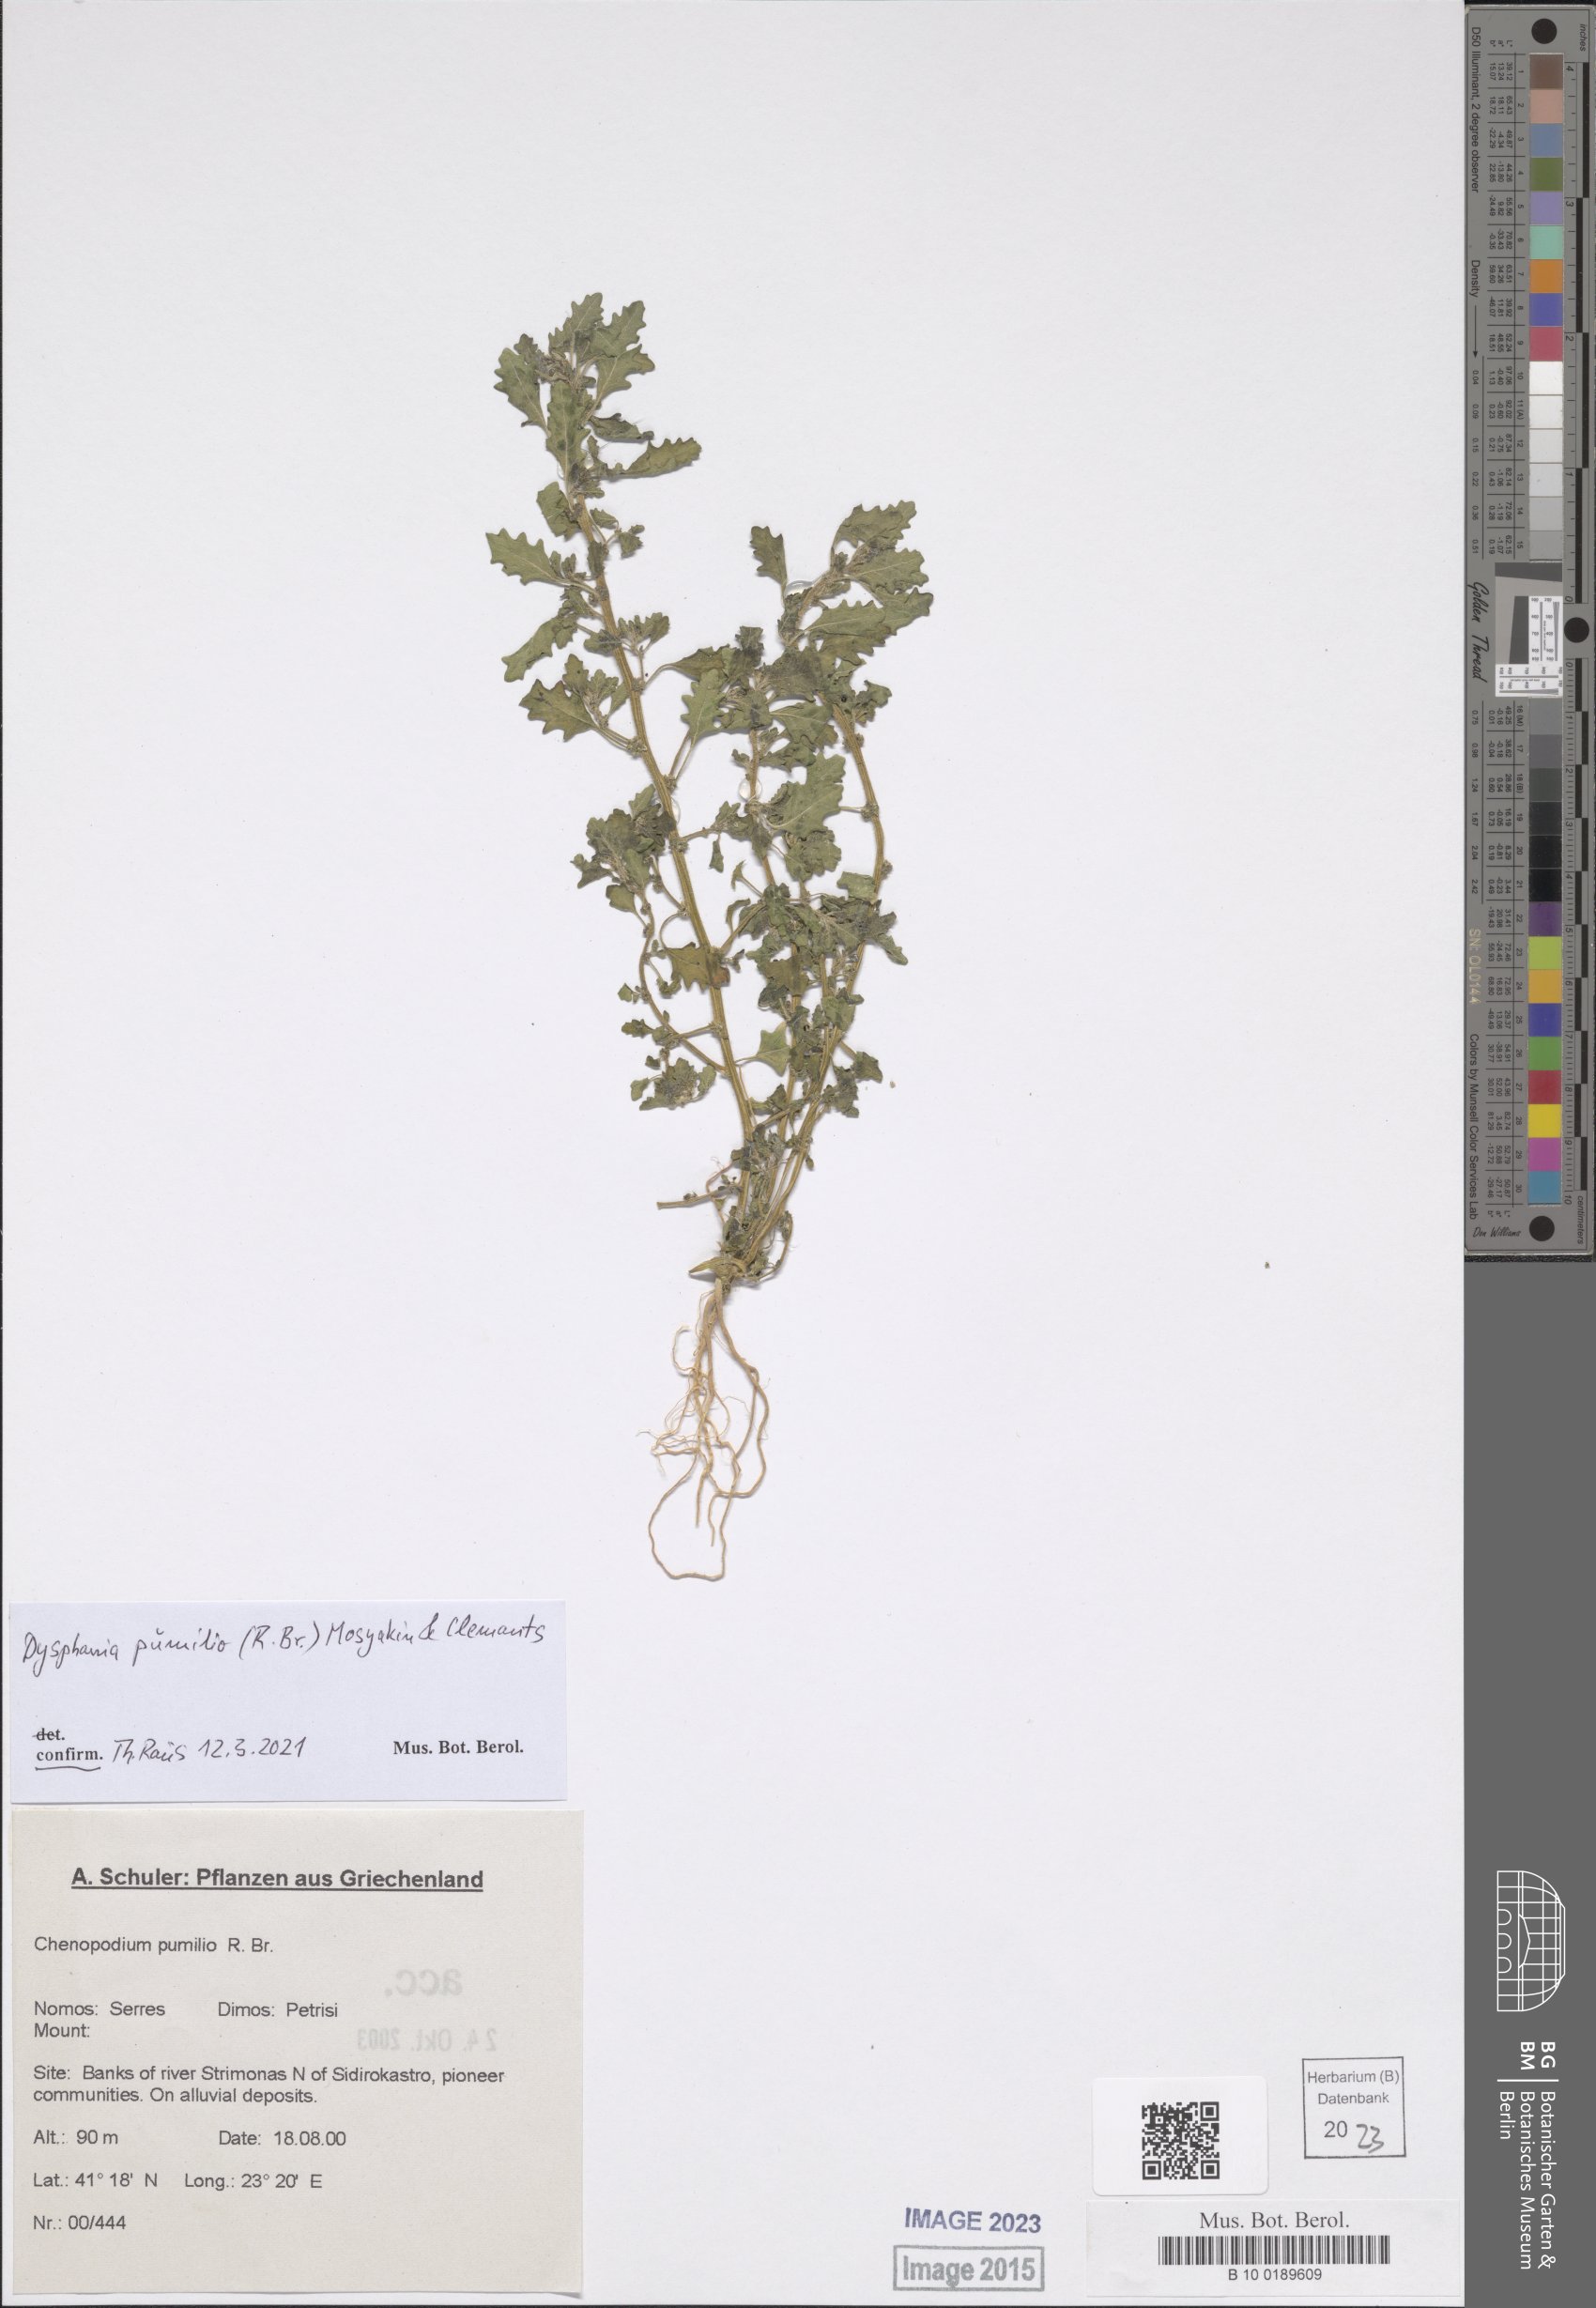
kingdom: Plantae
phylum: Tracheophyta
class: Magnoliopsida
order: Caryophyllales
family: Amaranthaceae
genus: Dysphania
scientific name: Dysphania pumilio
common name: Clammy goosefoot
